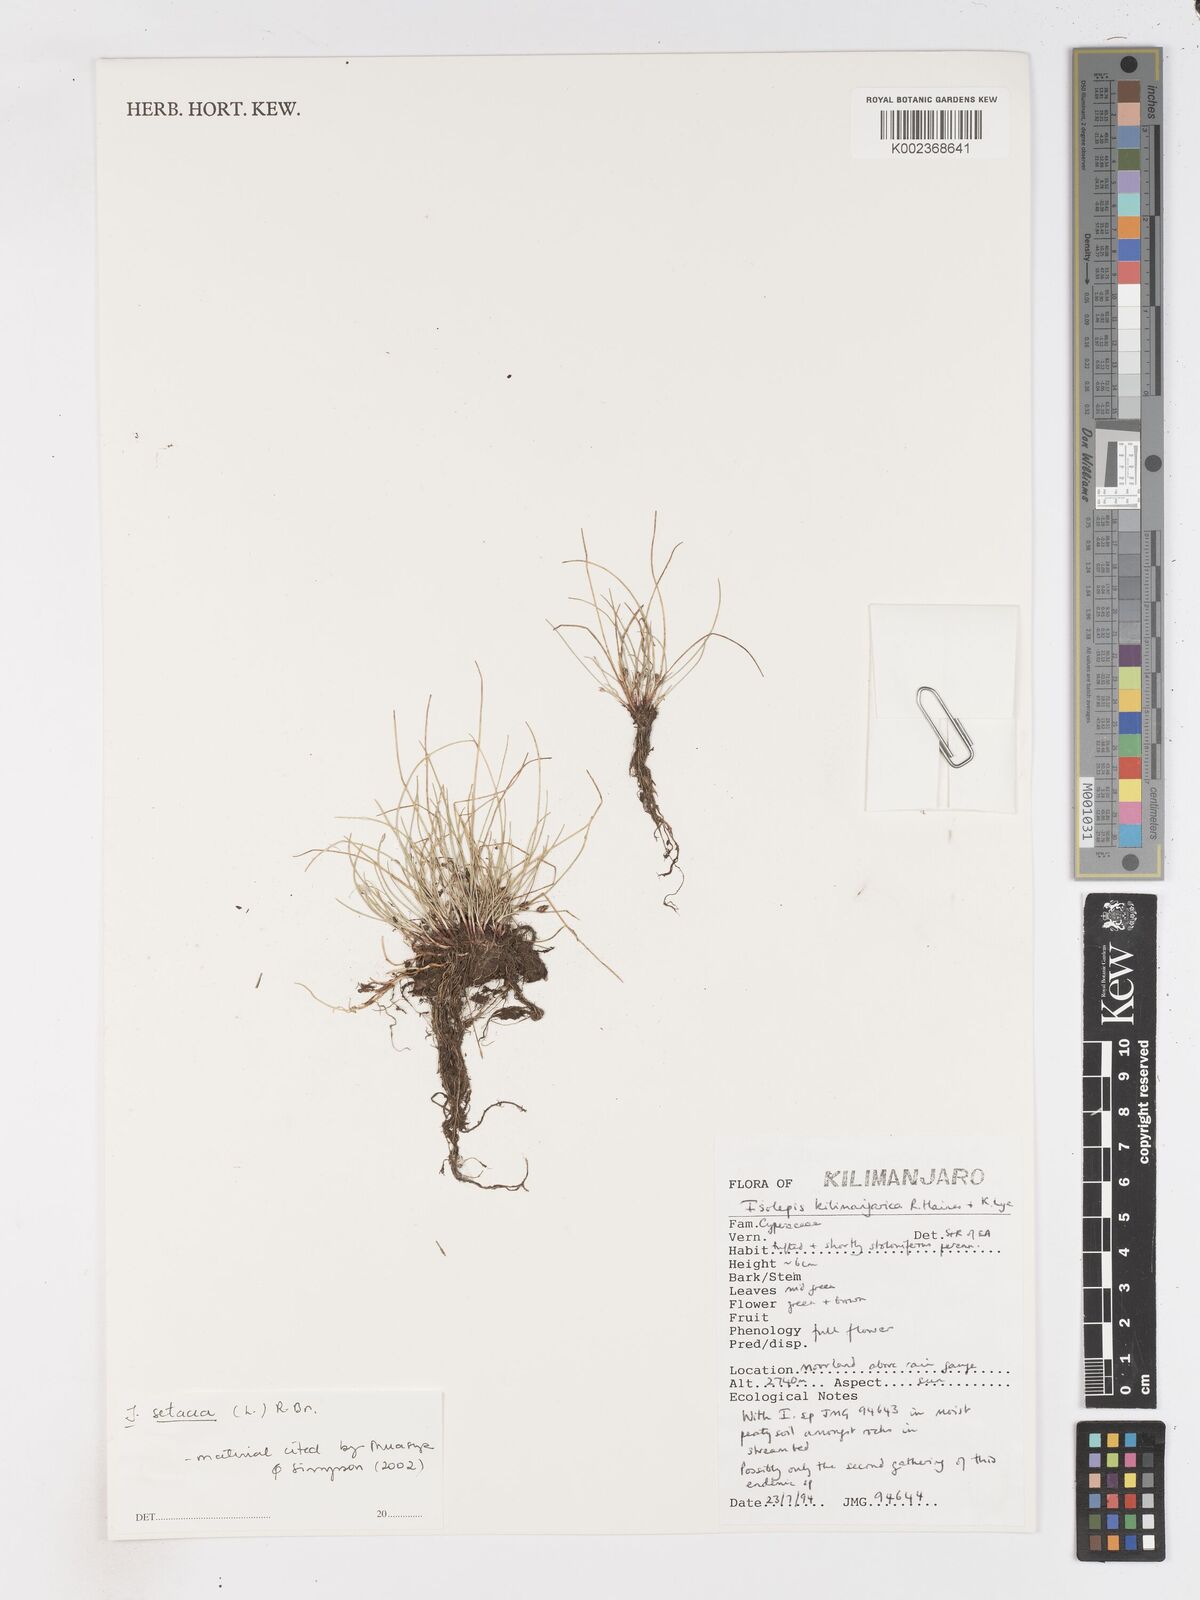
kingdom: Plantae
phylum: Tracheophyta
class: Liliopsida
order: Poales
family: Cyperaceae
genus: Isolepis
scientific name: Isolepis setacea
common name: Bristle club-rush
